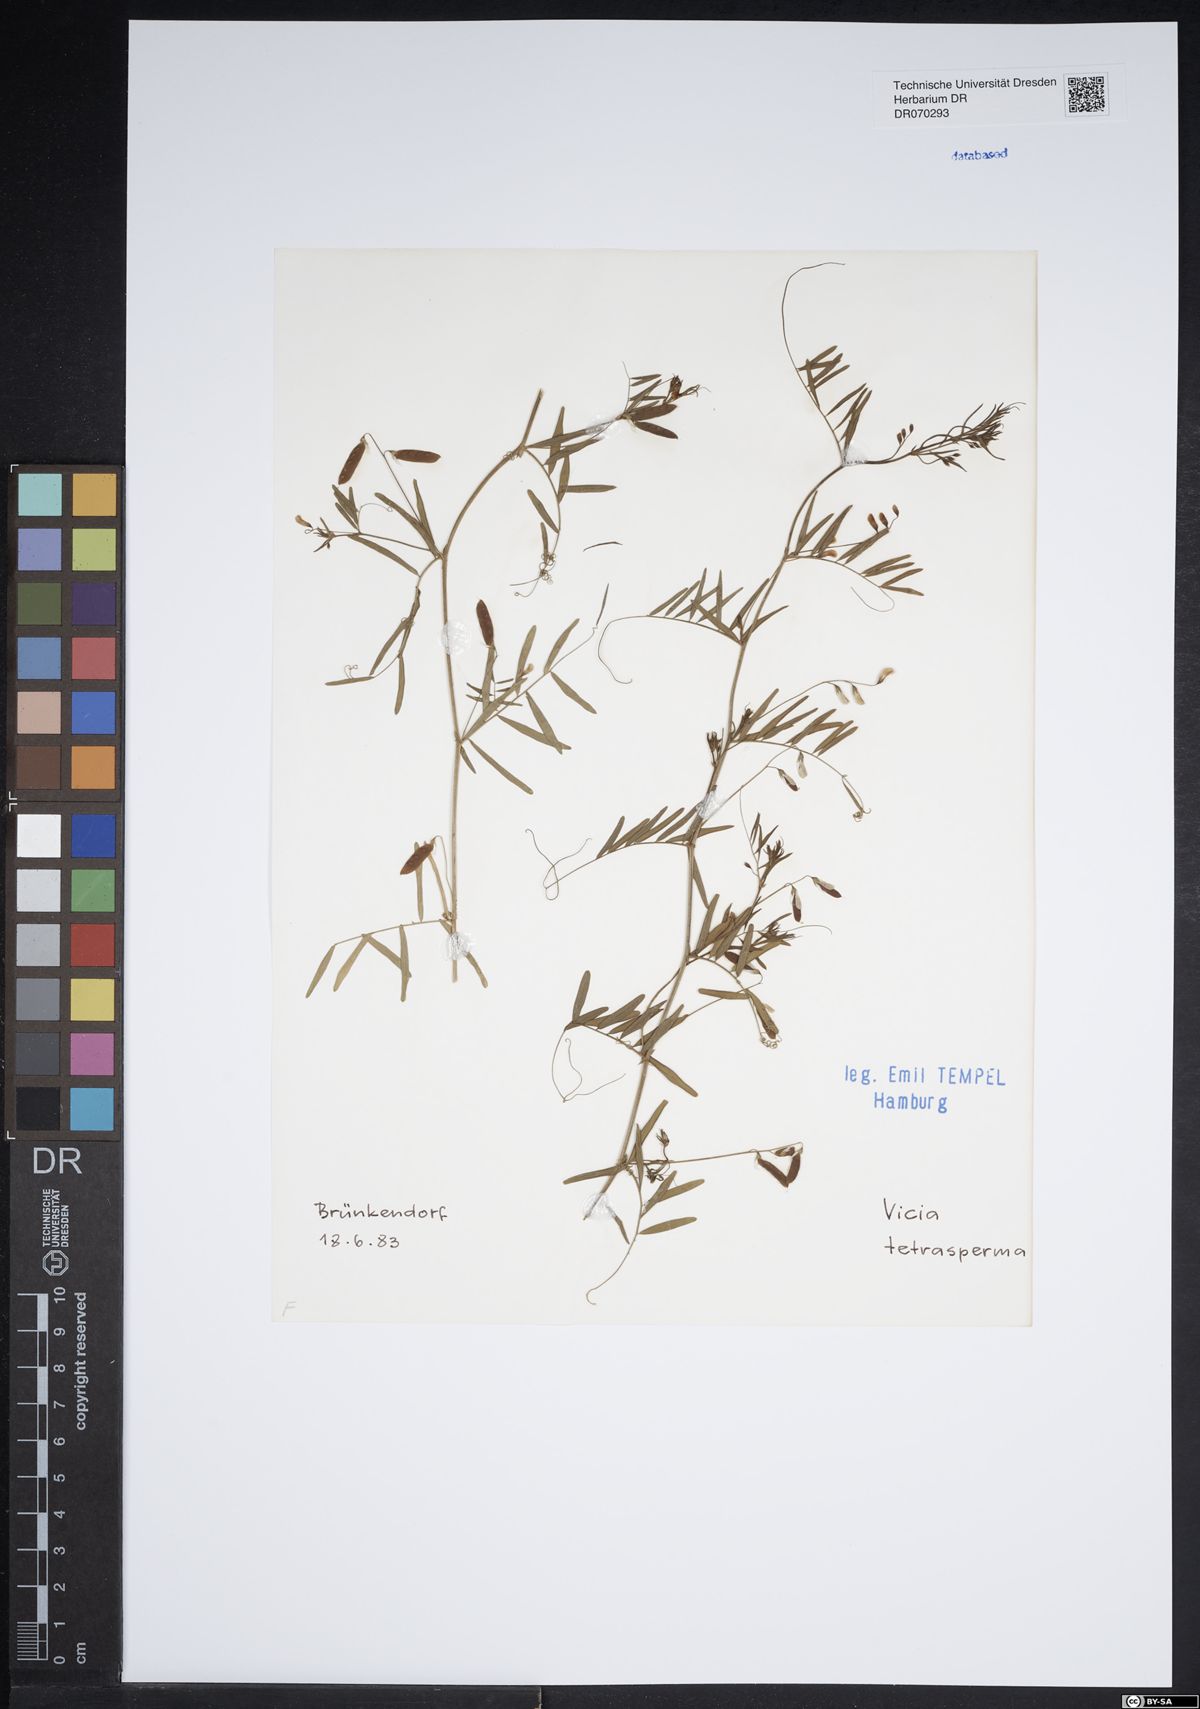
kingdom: Plantae
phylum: Tracheophyta
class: Magnoliopsida
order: Fabales
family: Fabaceae
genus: Vicia
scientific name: Vicia tetrasperma
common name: Smooth tare
